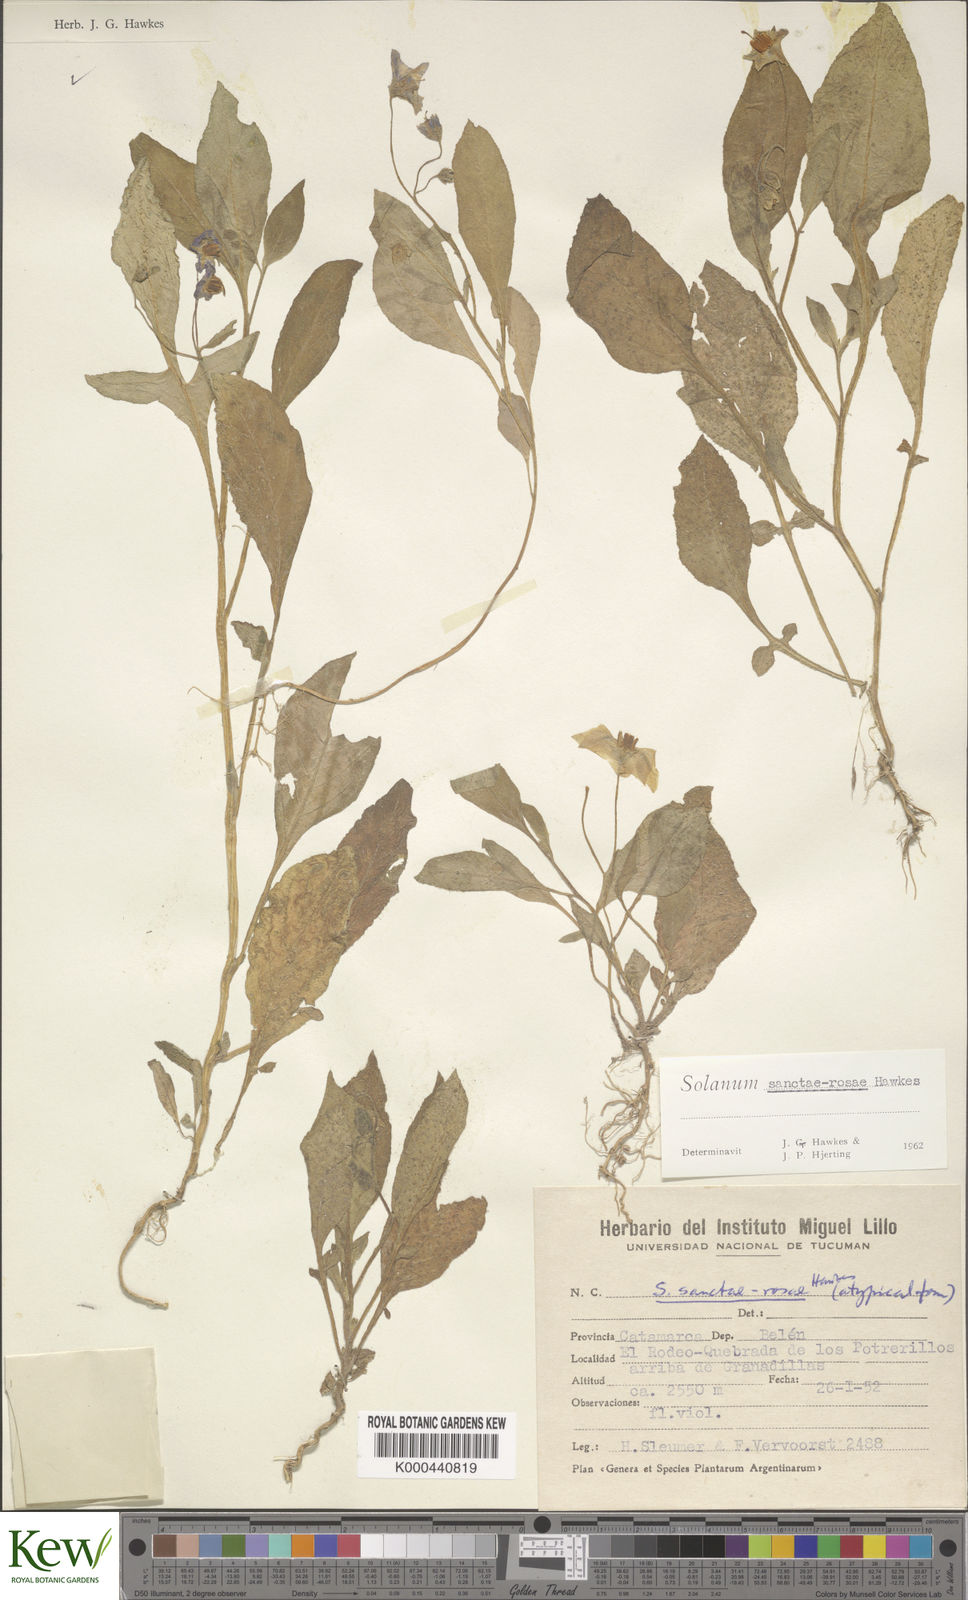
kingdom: Plantae
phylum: Tracheophyta
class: Magnoliopsida
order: Solanales
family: Solanaceae
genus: Solanum
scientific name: Solanum boliviense
